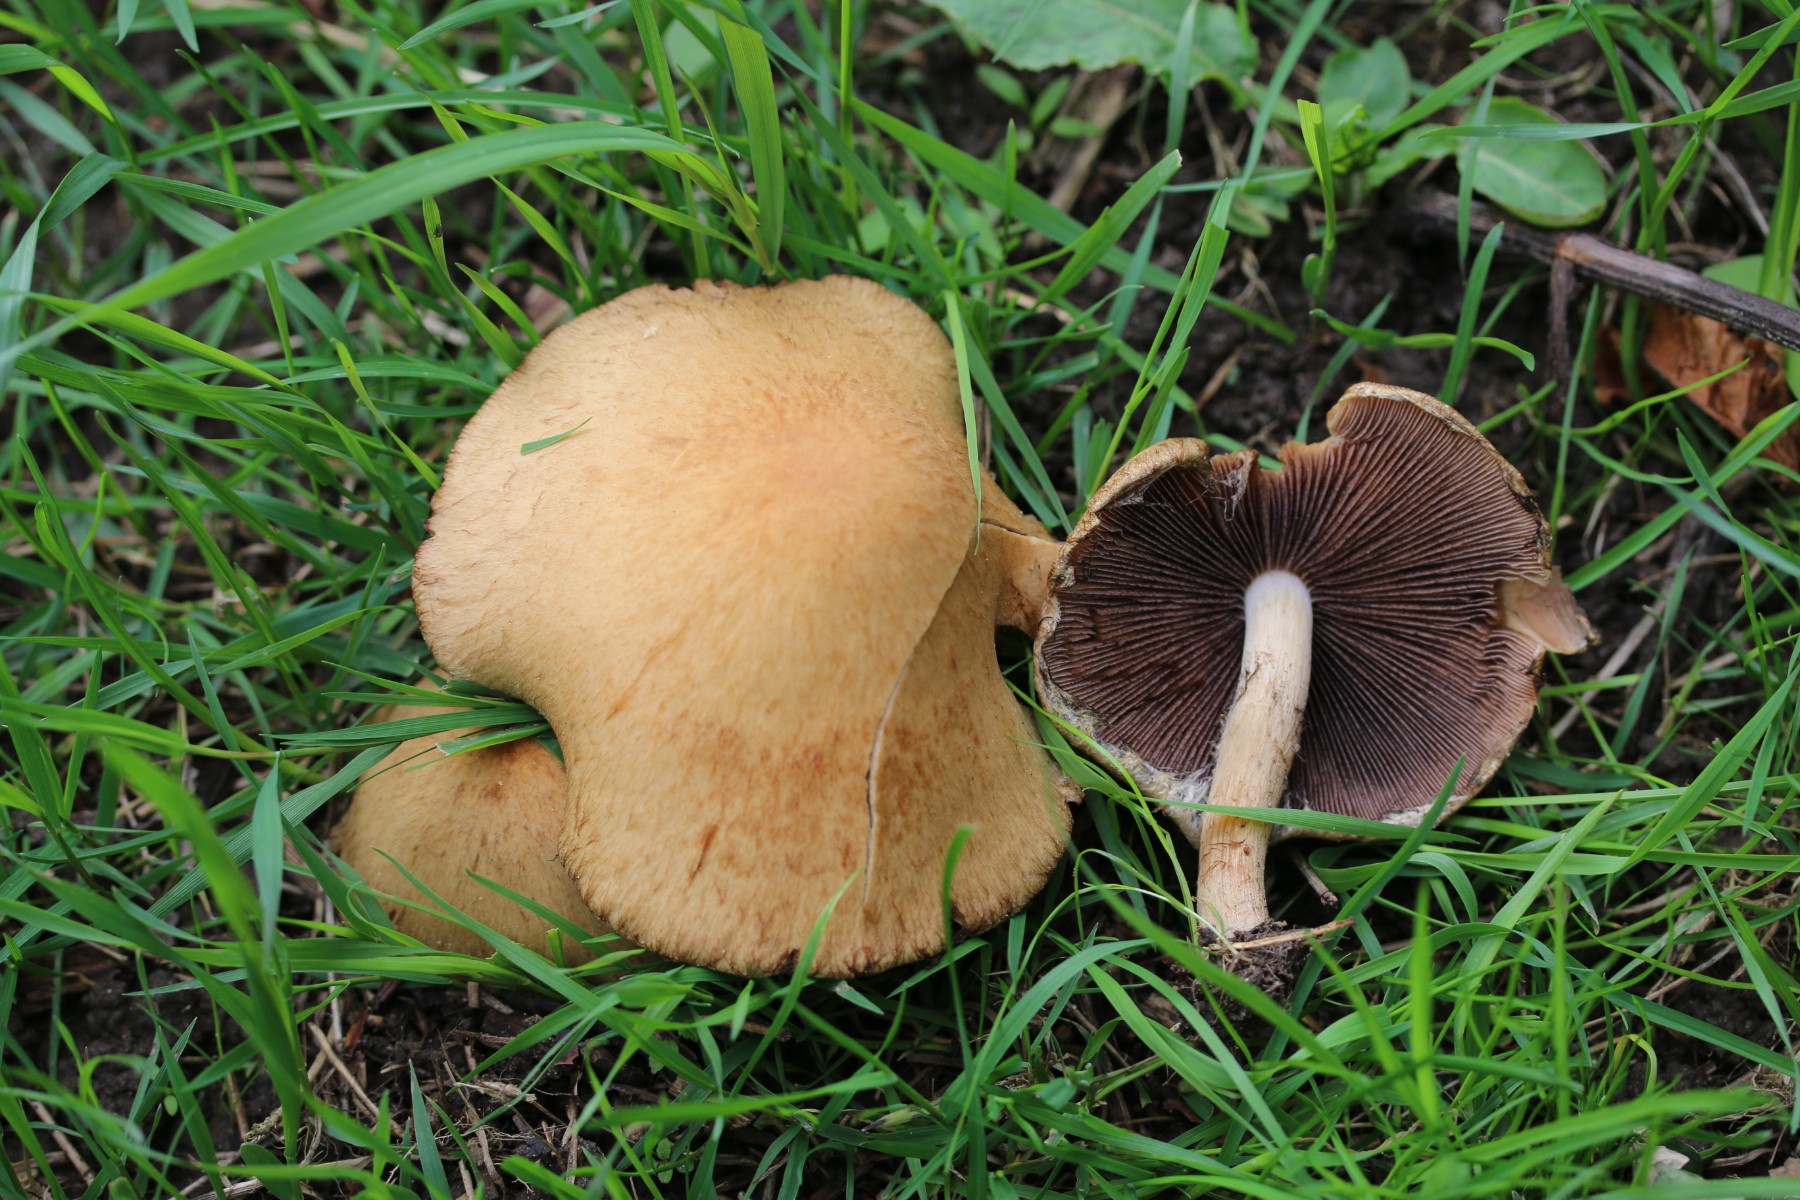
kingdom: Fungi
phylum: Basidiomycota
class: Agaricomycetes
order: Agaricales
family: Psathyrellaceae
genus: Lacrymaria
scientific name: Lacrymaria lacrymabunda
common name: grædende mørkhat
